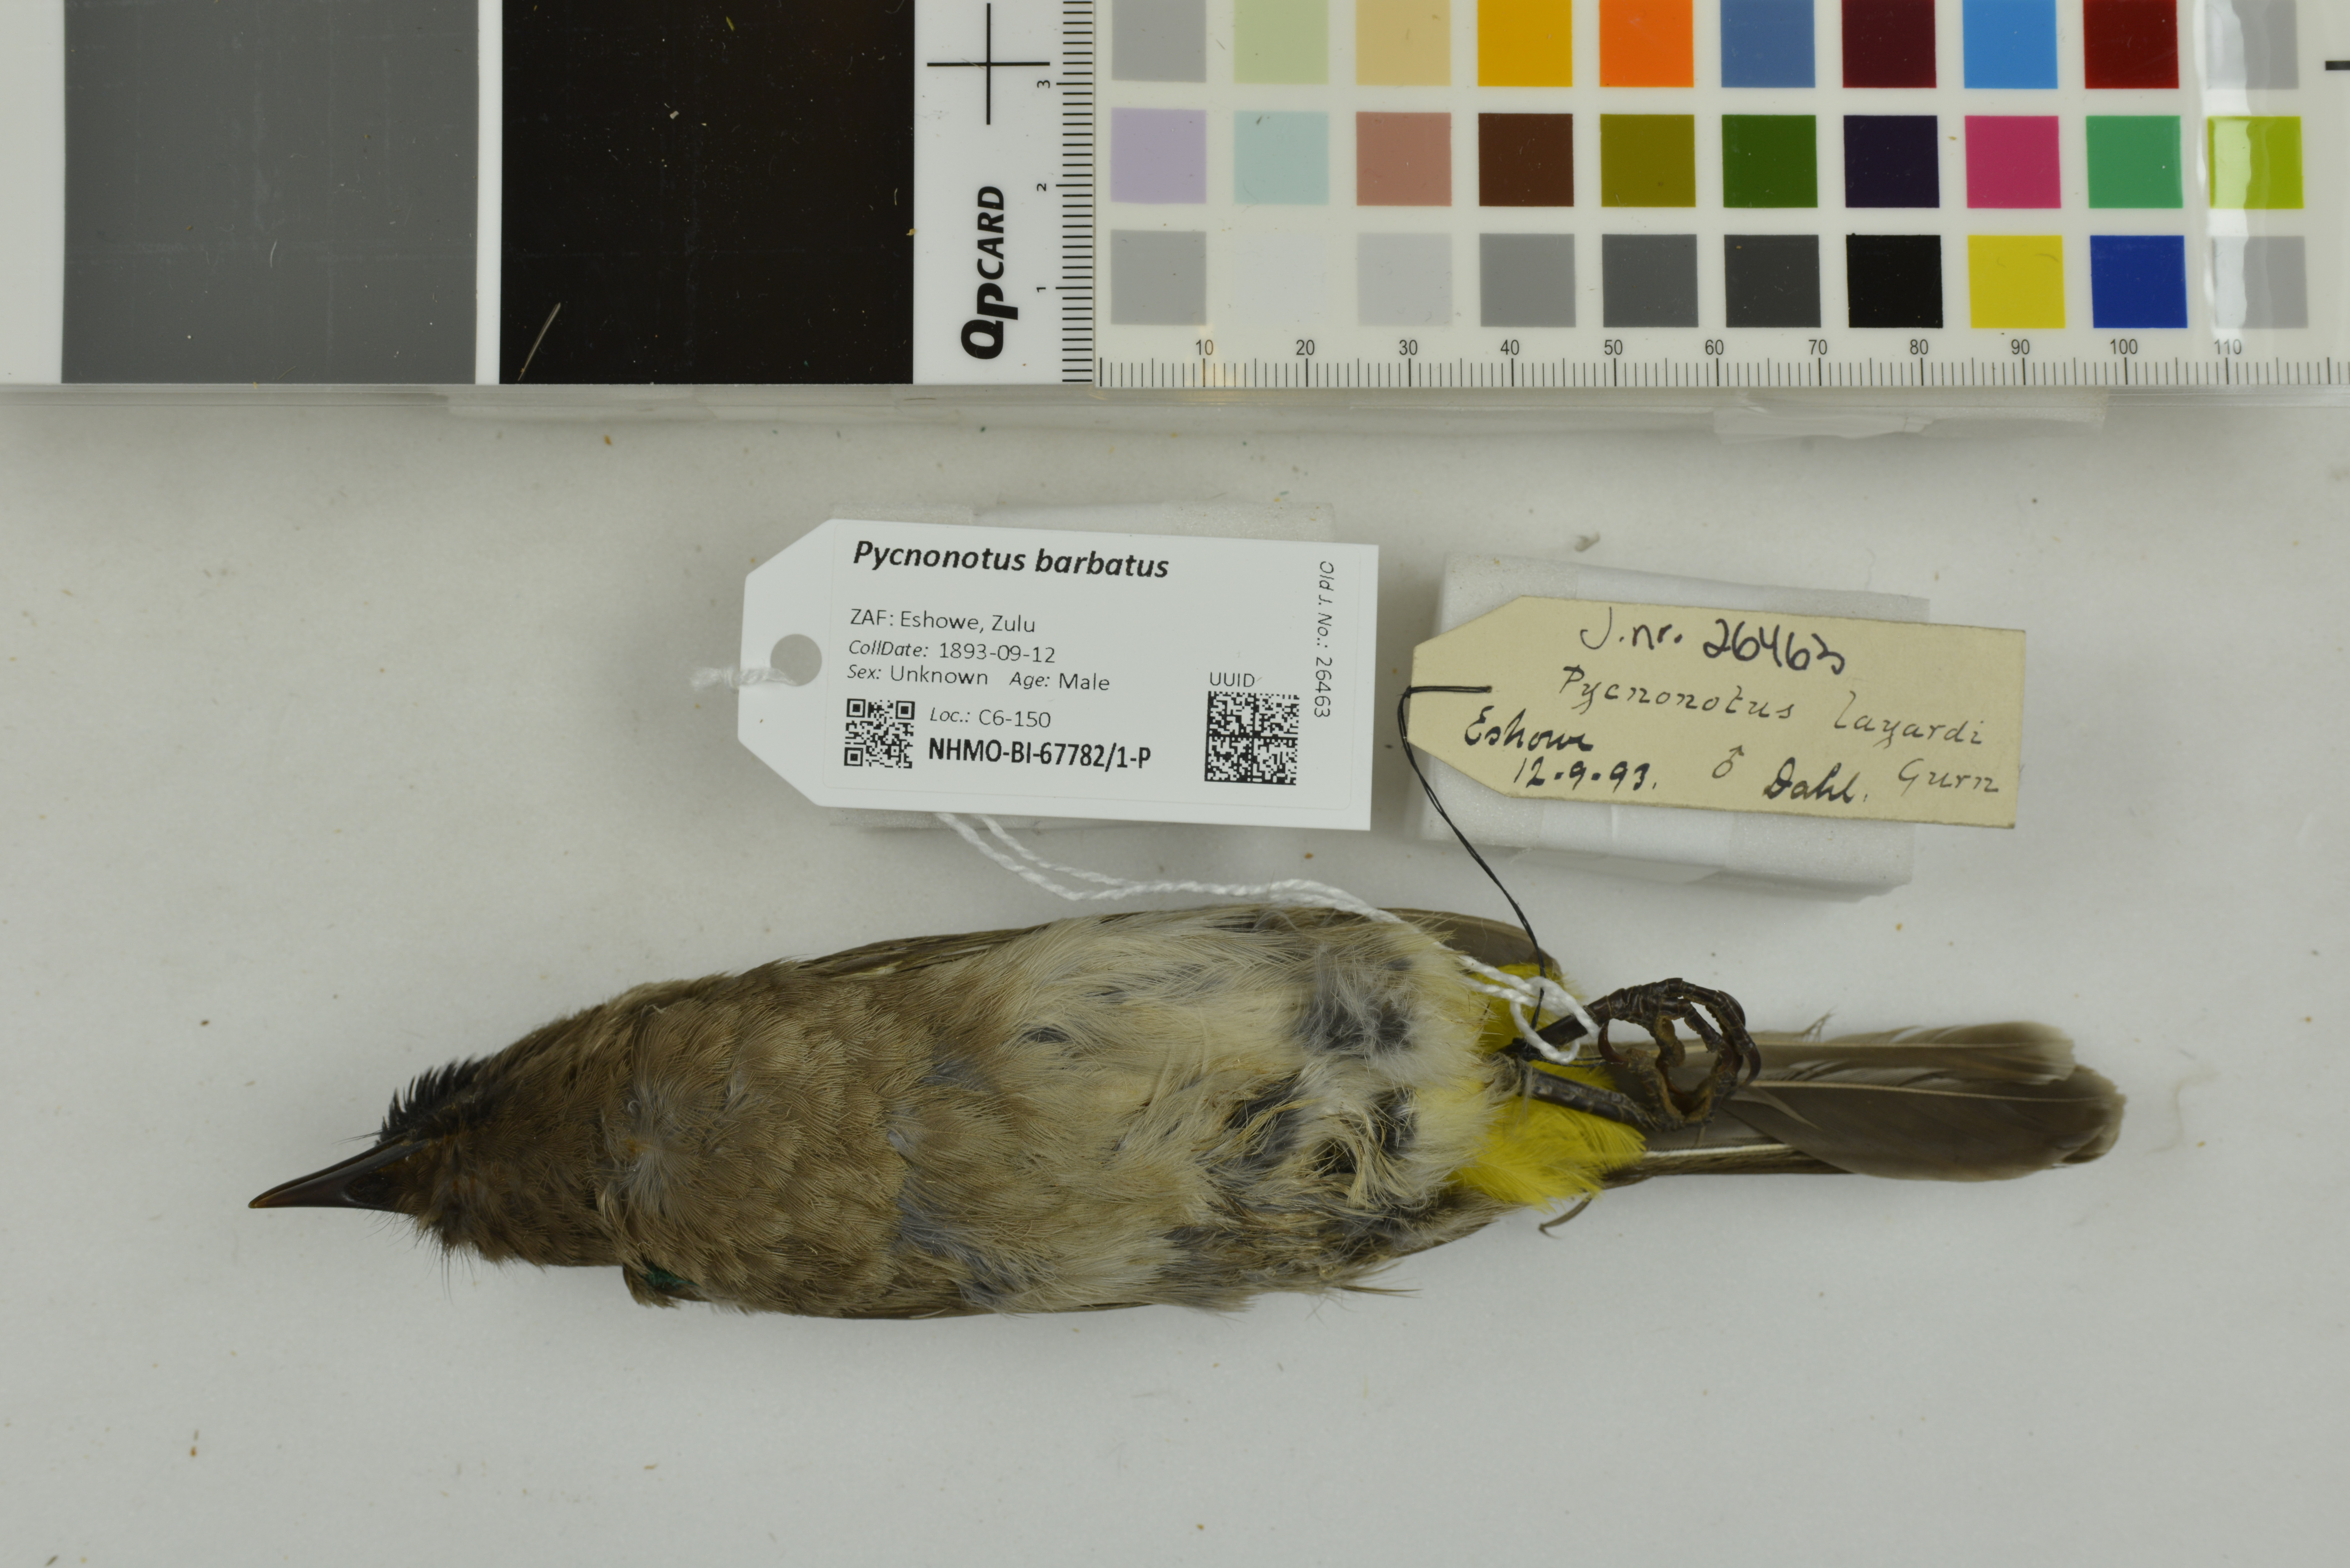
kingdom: Animalia
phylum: Chordata
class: Aves
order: Passeriformes
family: Pycnonotidae
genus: Pycnonotus
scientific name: Pycnonotus barbatus
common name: Common bulbul
